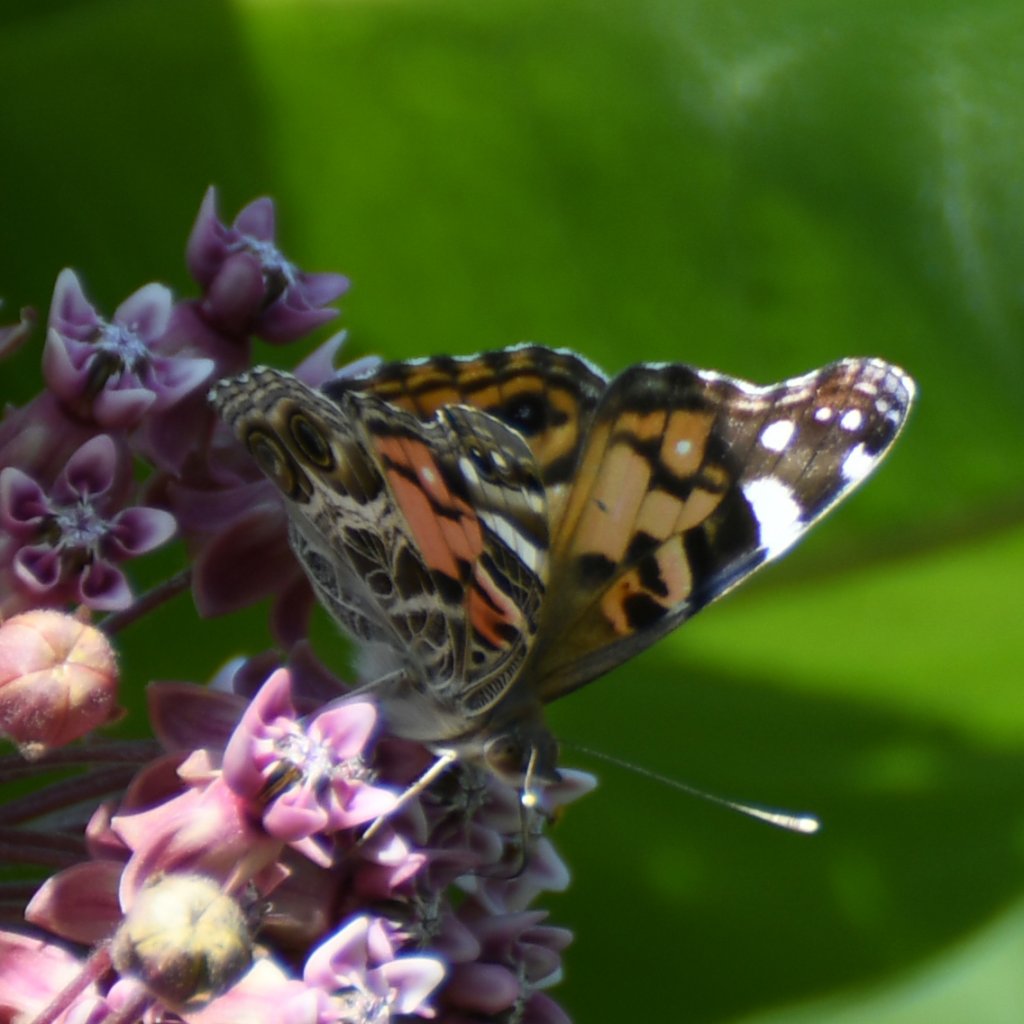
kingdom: Animalia
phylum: Arthropoda
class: Insecta
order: Lepidoptera
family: Nymphalidae
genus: Vanessa
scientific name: Vanessa virginiensis
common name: American Lady
